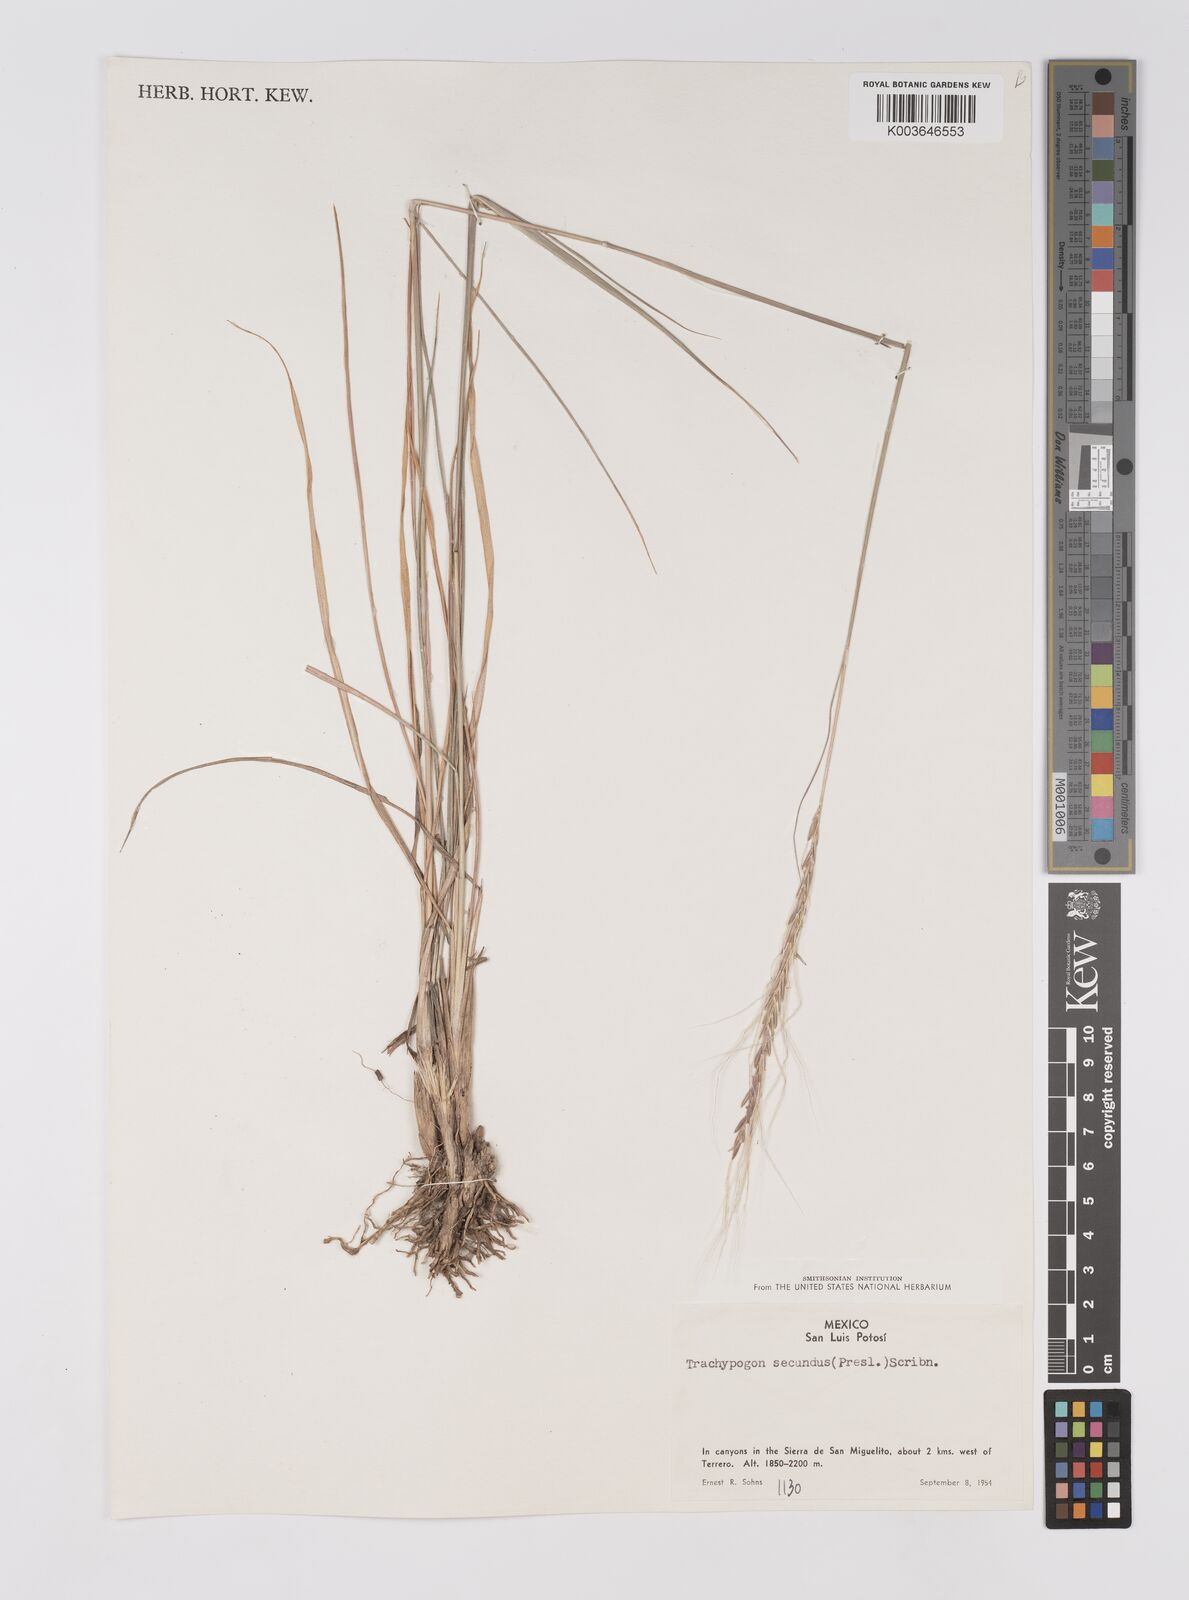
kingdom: Plantae
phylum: Tracheophyta
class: Liliopsida
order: Poales
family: Poaceae
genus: Trachypogon
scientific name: Trachypogon spicatus
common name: Crinkle-awn
